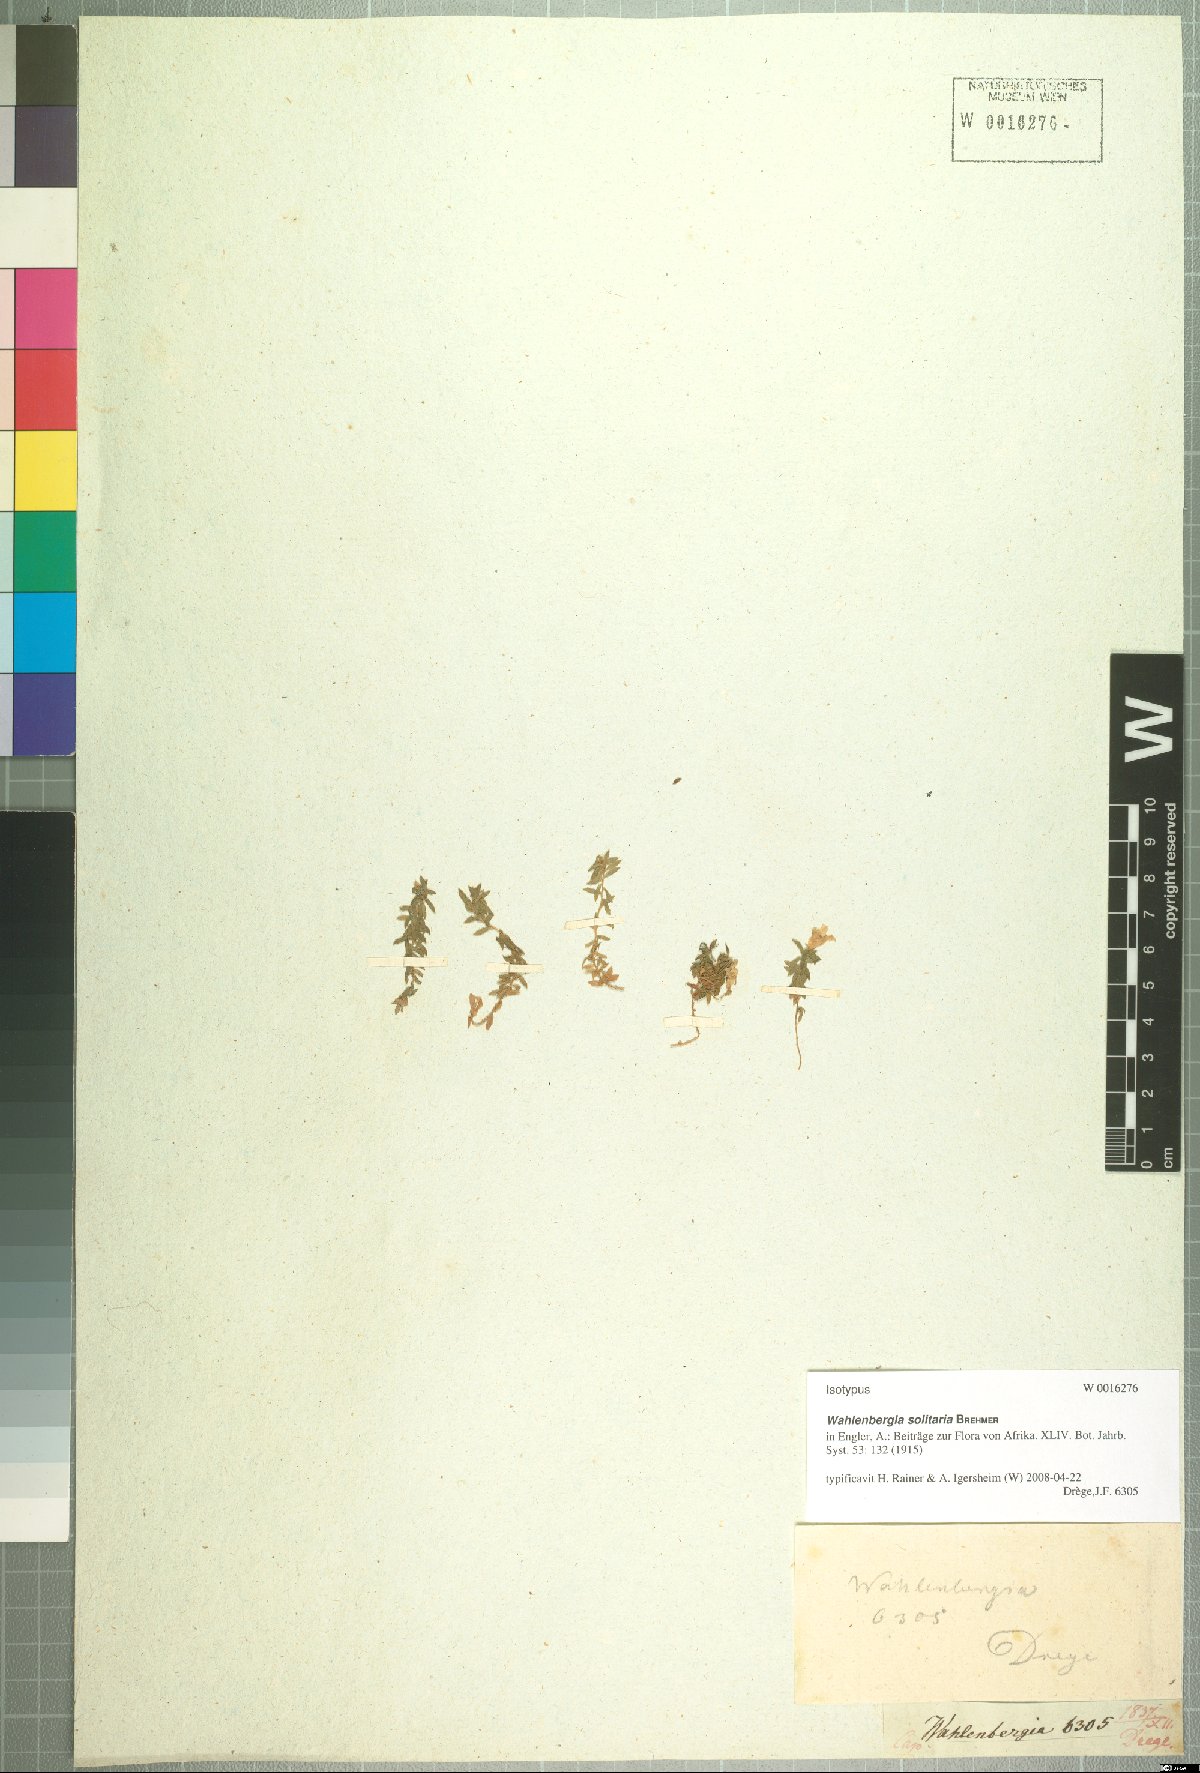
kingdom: Plantae
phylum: Tracheophyta
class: Magnoliopsida
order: Asterales
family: Campanulaceae
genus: Wahlenbergia
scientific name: Wahlenbergia solitaria
